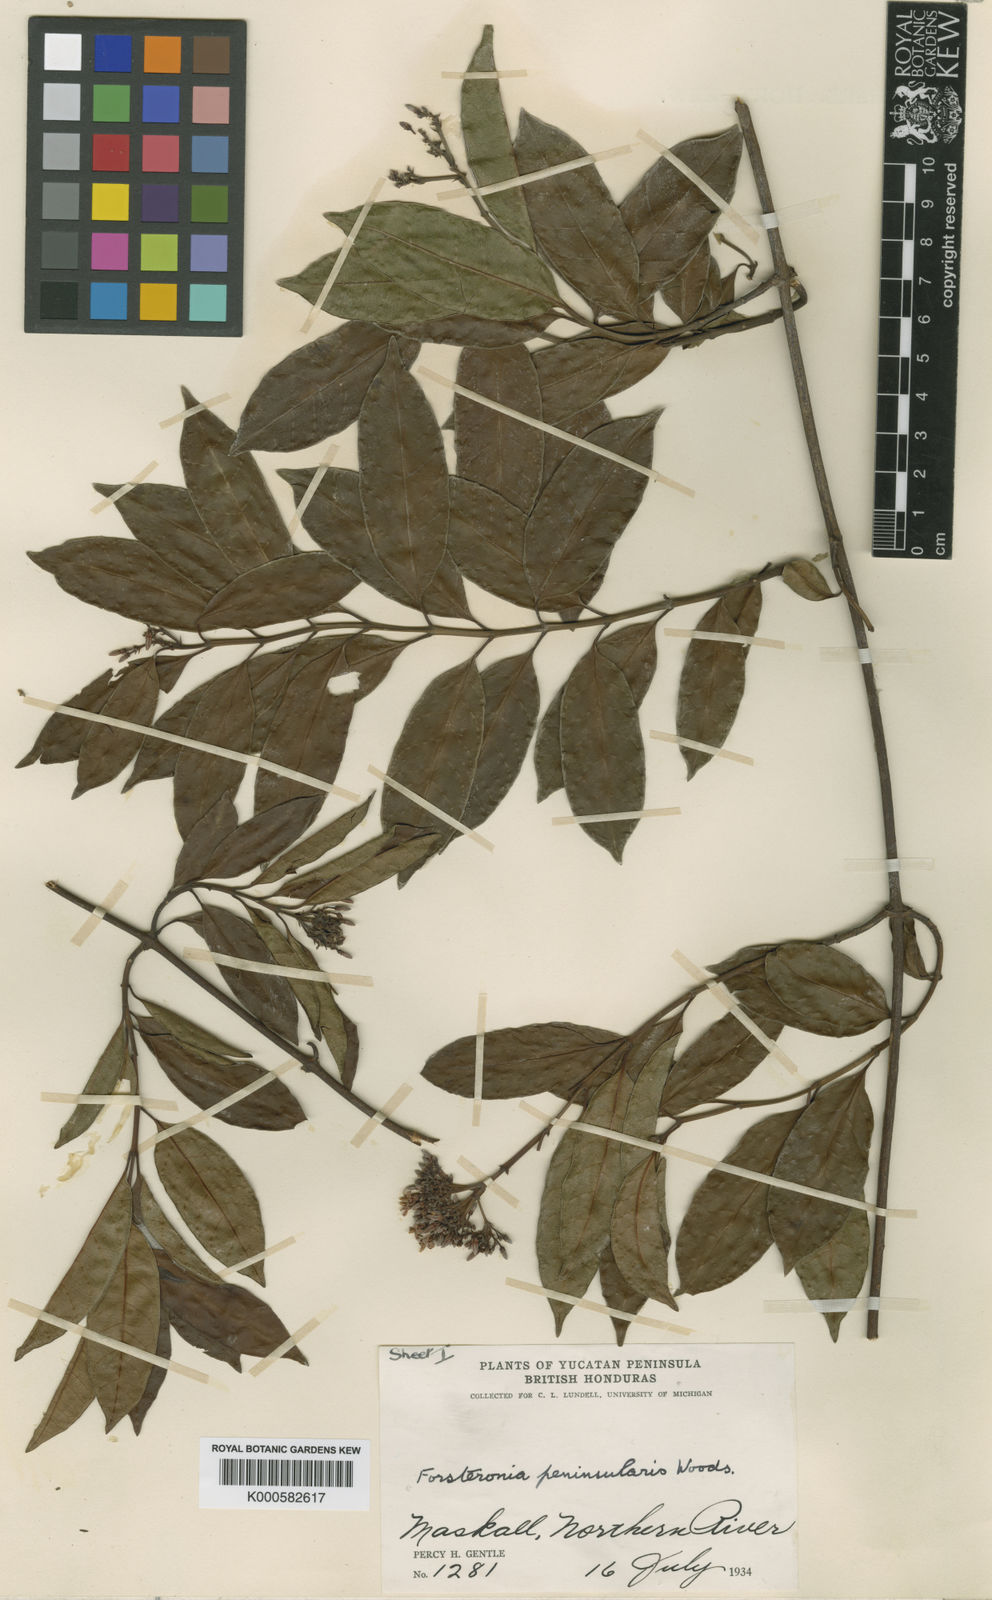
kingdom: Plantae
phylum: Tracheophyta
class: Magnoliopsida
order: Gentianales
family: Apocynaceae
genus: Pinochia
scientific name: Pinochia peninsularis
